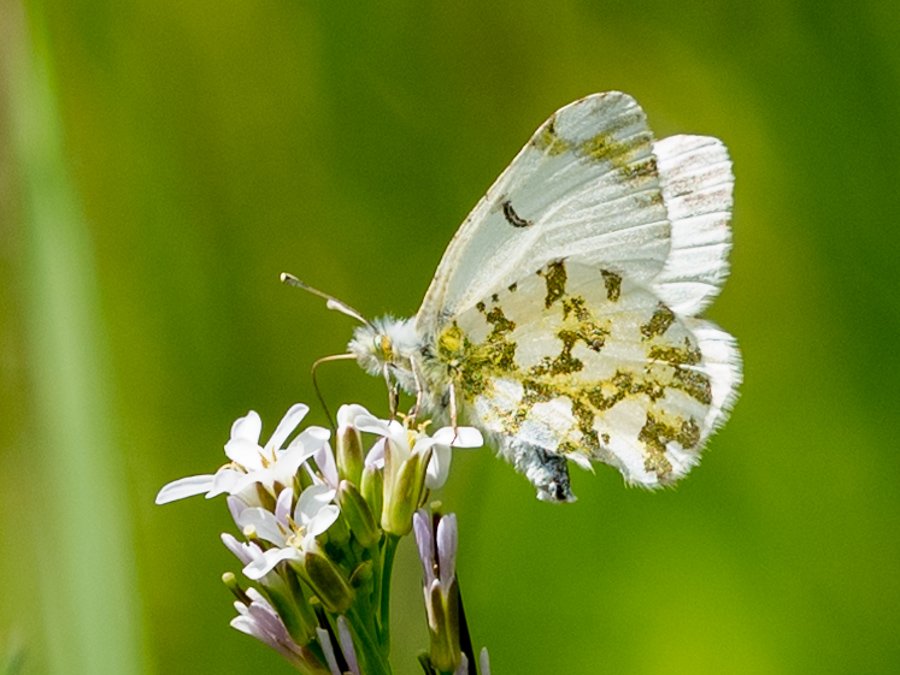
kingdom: Animalia
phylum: Arthropoda
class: Insecta
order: Lepidoptera
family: Pieridae
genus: Euchloe
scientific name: Euchloe ausonides
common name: Large Marble
